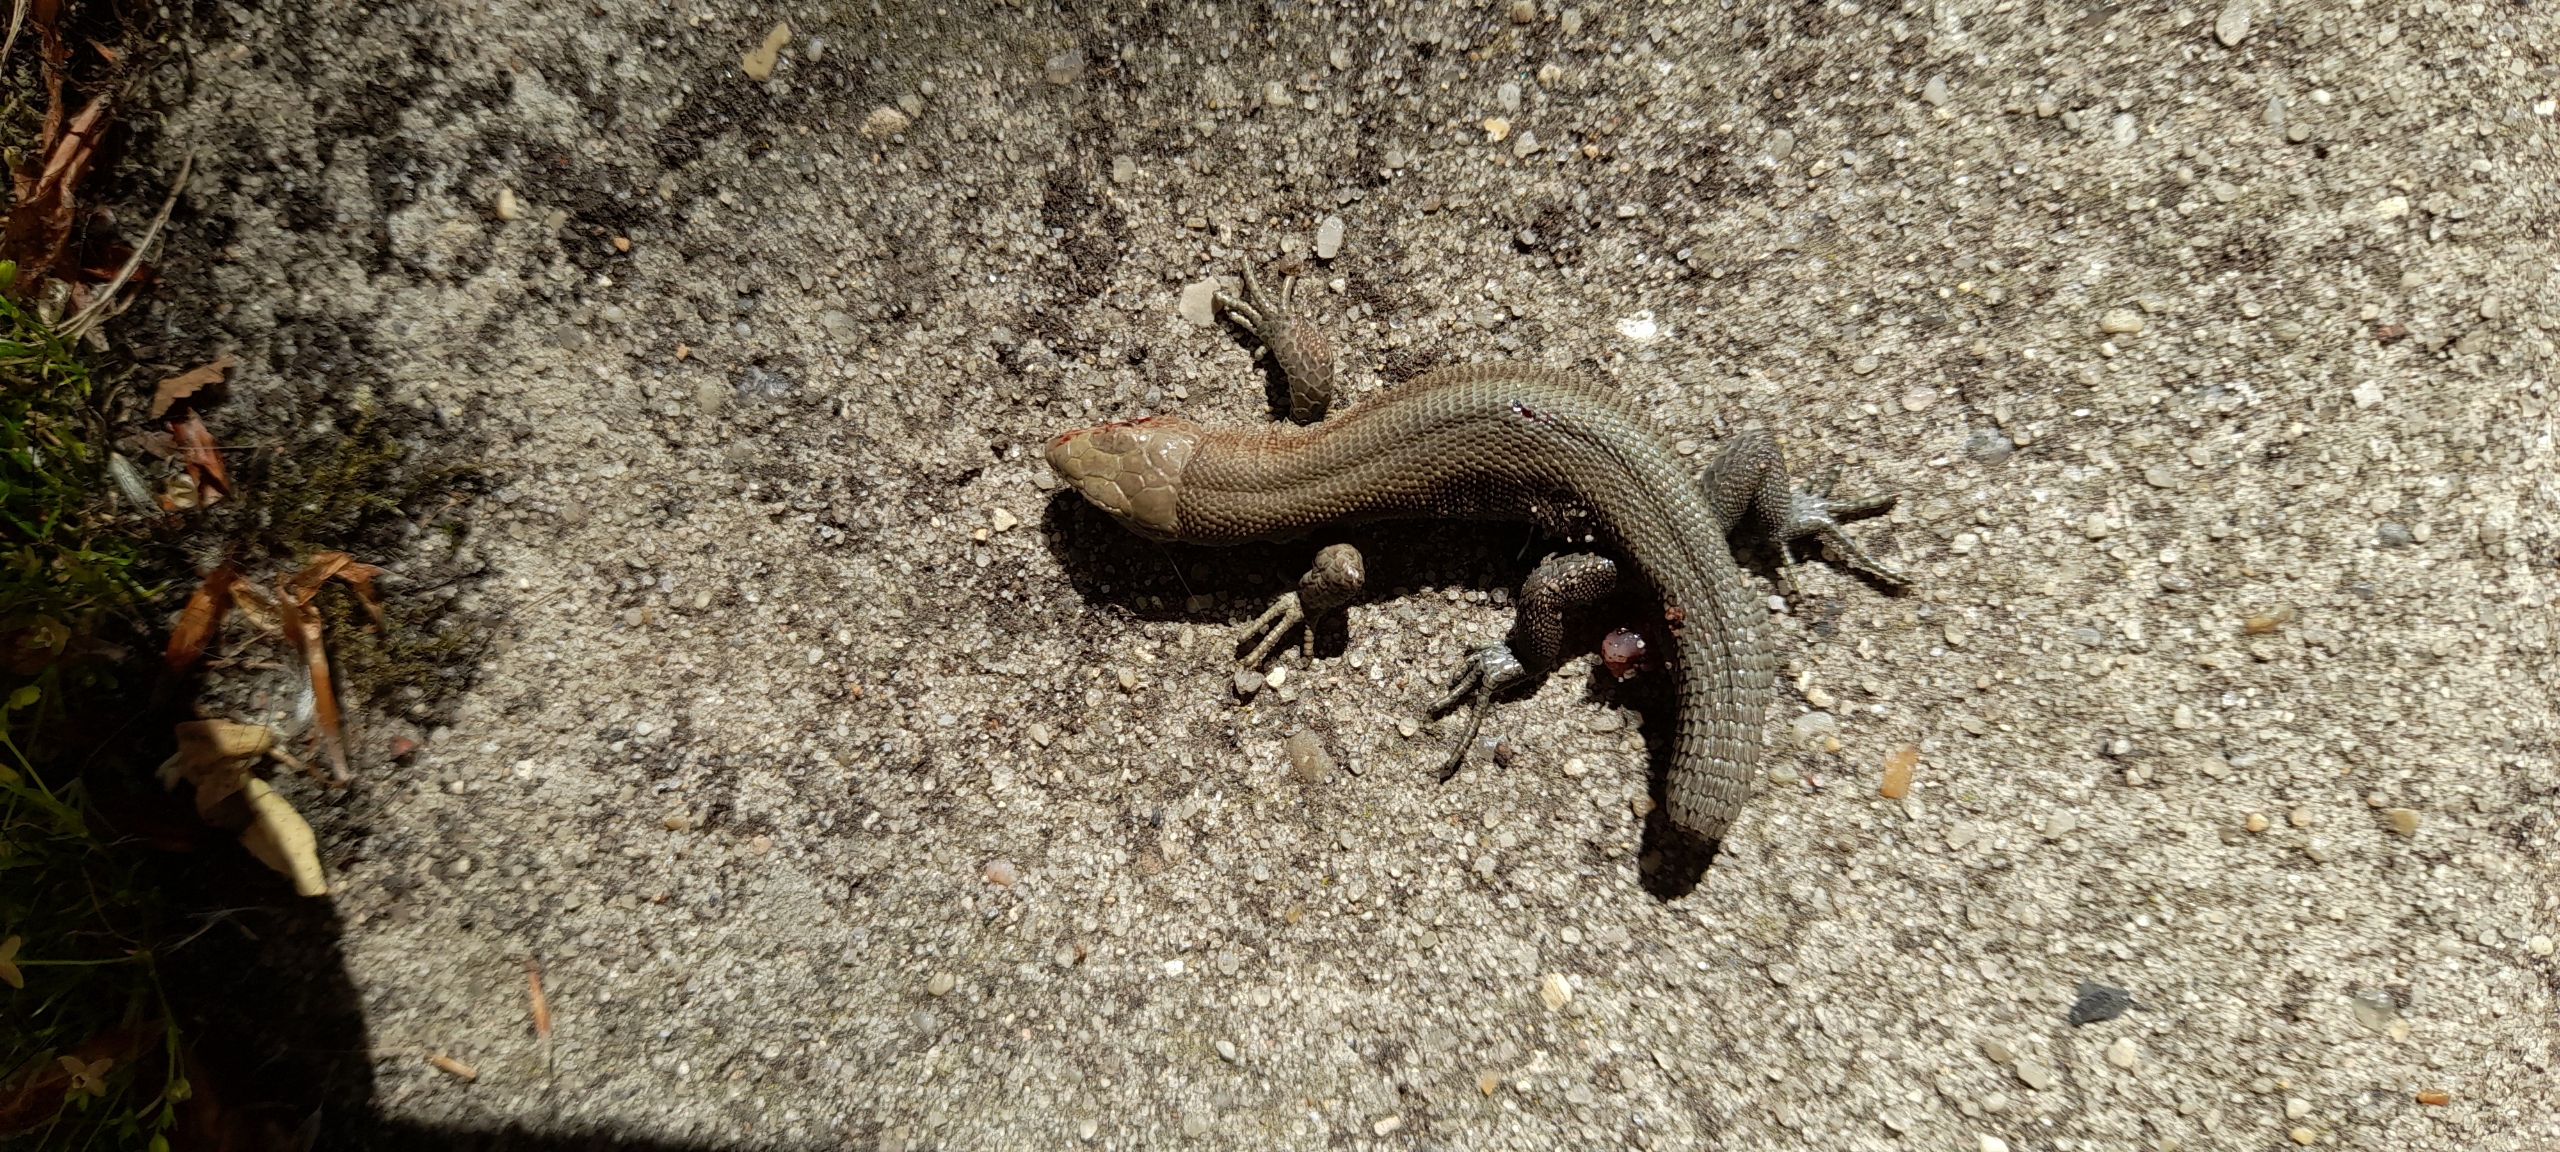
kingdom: Animalia
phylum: Chordata
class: Squamata
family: Lacertidae
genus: Zootoca
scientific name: Zootoca vivipara
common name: Skovfirben
